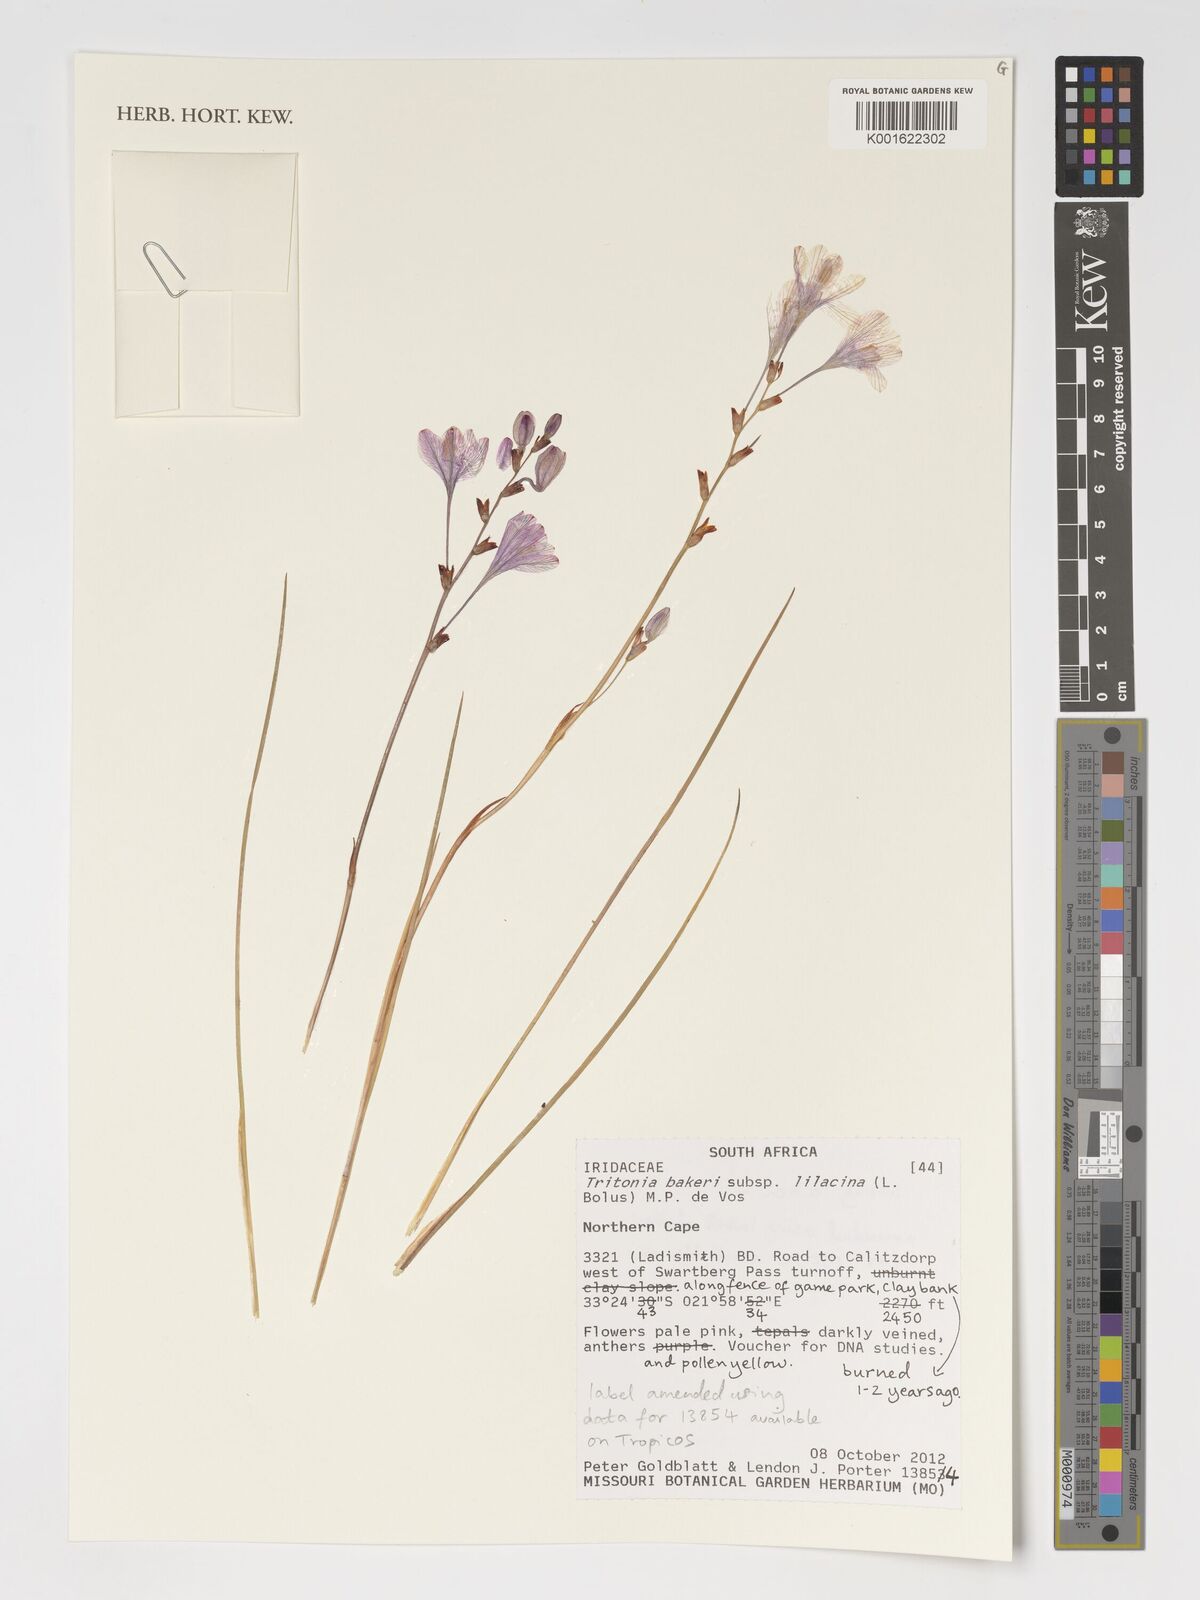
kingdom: Plantae
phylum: Tracheophyta
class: Liliopsida
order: Asparagales
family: Iridaceae
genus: Tritonia
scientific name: Tritonia bakeri
